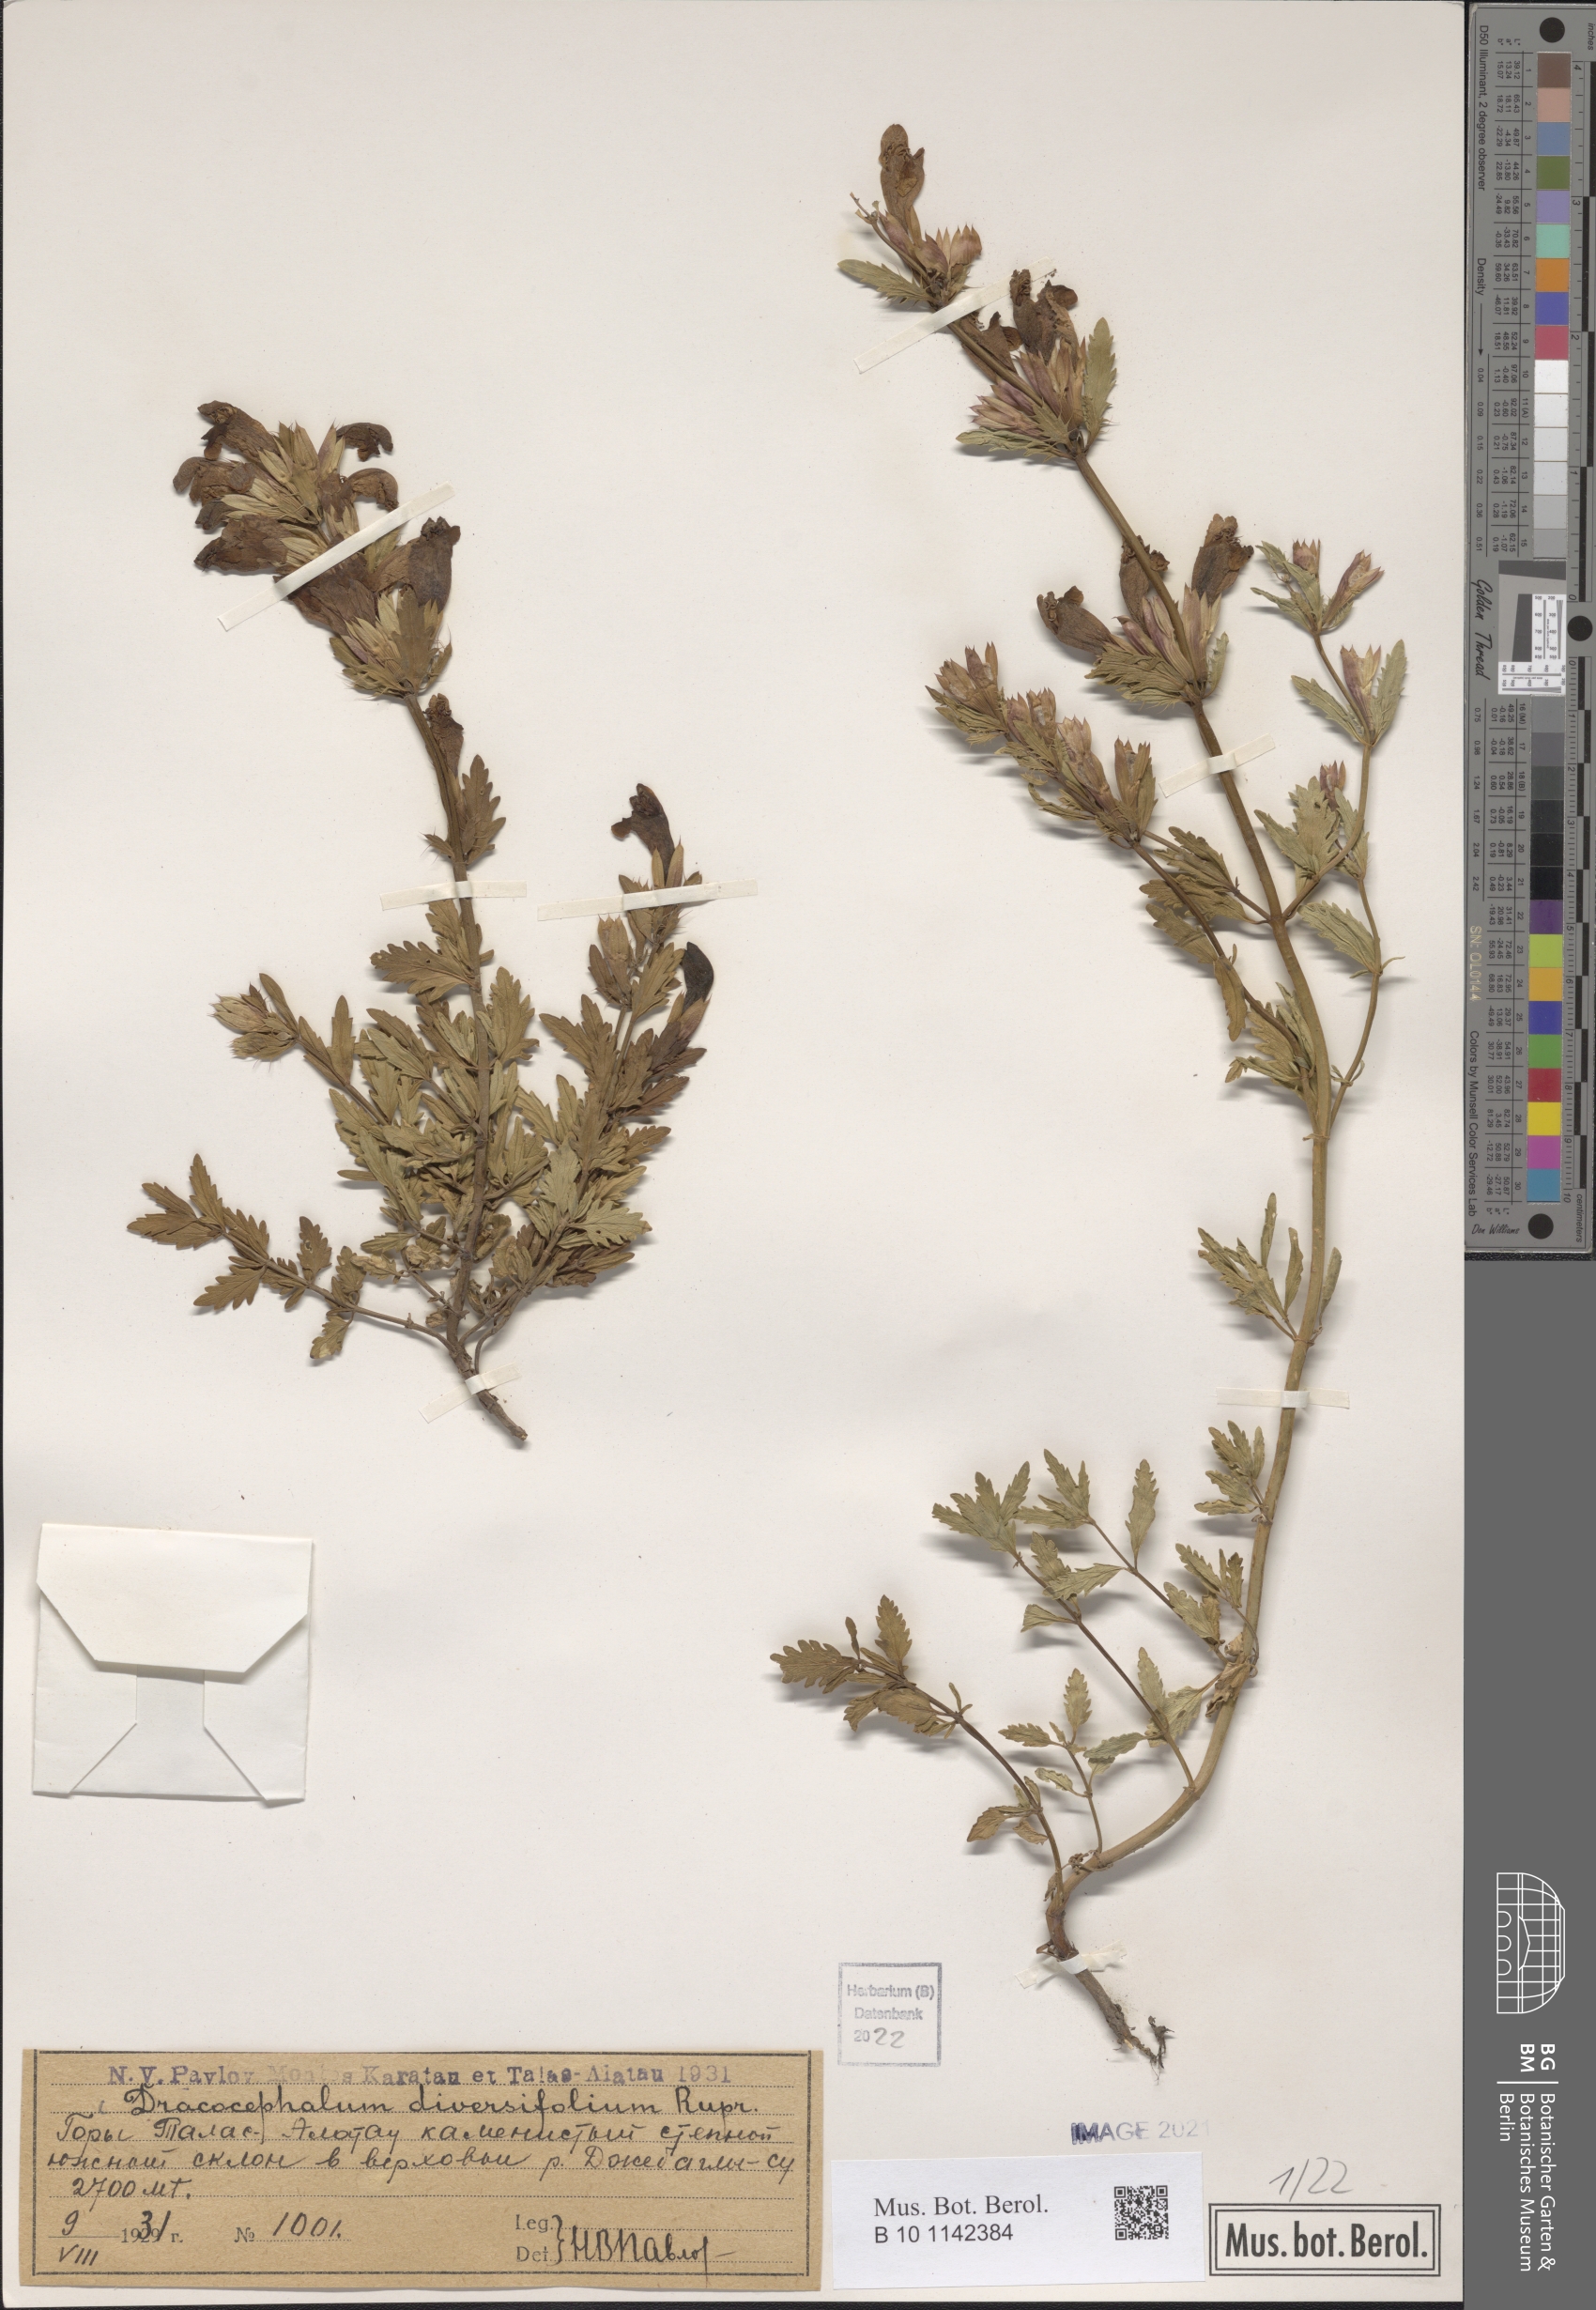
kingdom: Plantae
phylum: Tracheophyta
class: Magnoliopsida
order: Lamiales
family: Lamiaceae
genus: Dracocephalum
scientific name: Dracocephalum diversifolium
